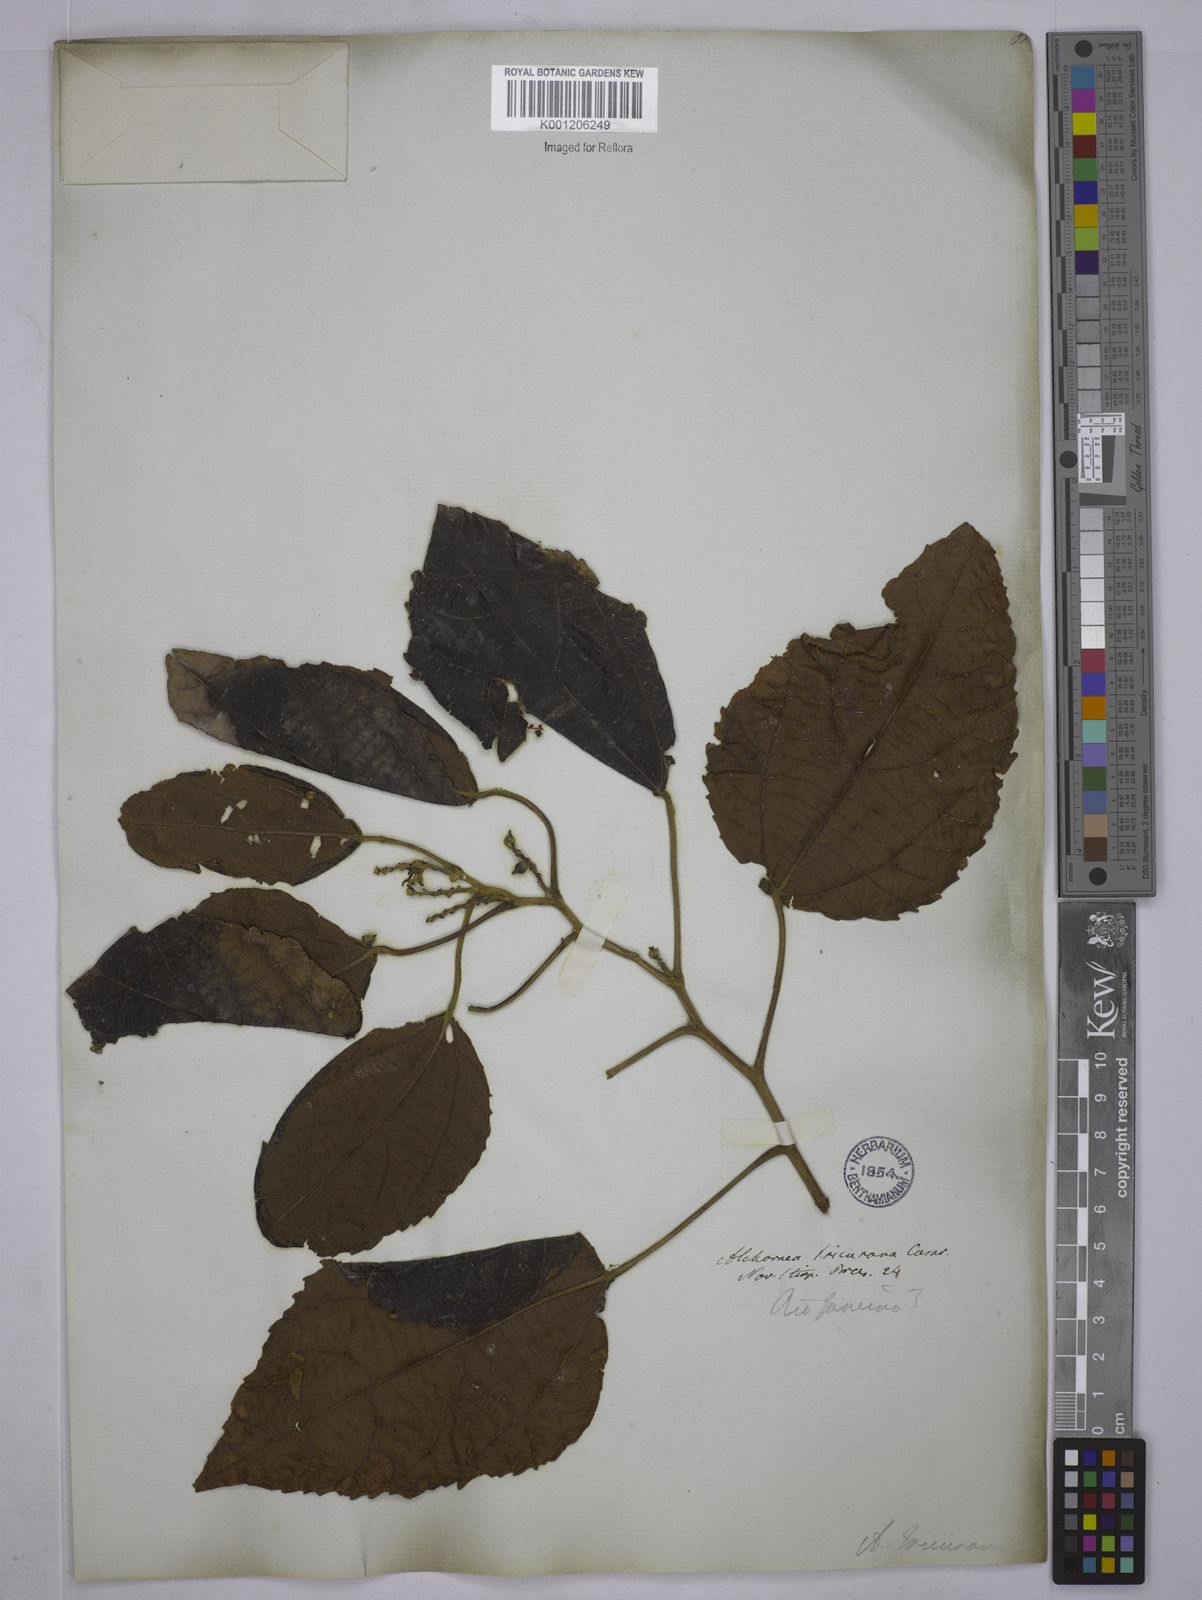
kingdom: Plantae
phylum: Tracheophyta
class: Magnoliopsida
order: Malpighiales
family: Euphorbiaceae
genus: Alchornea
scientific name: Alchornea glandulosa
